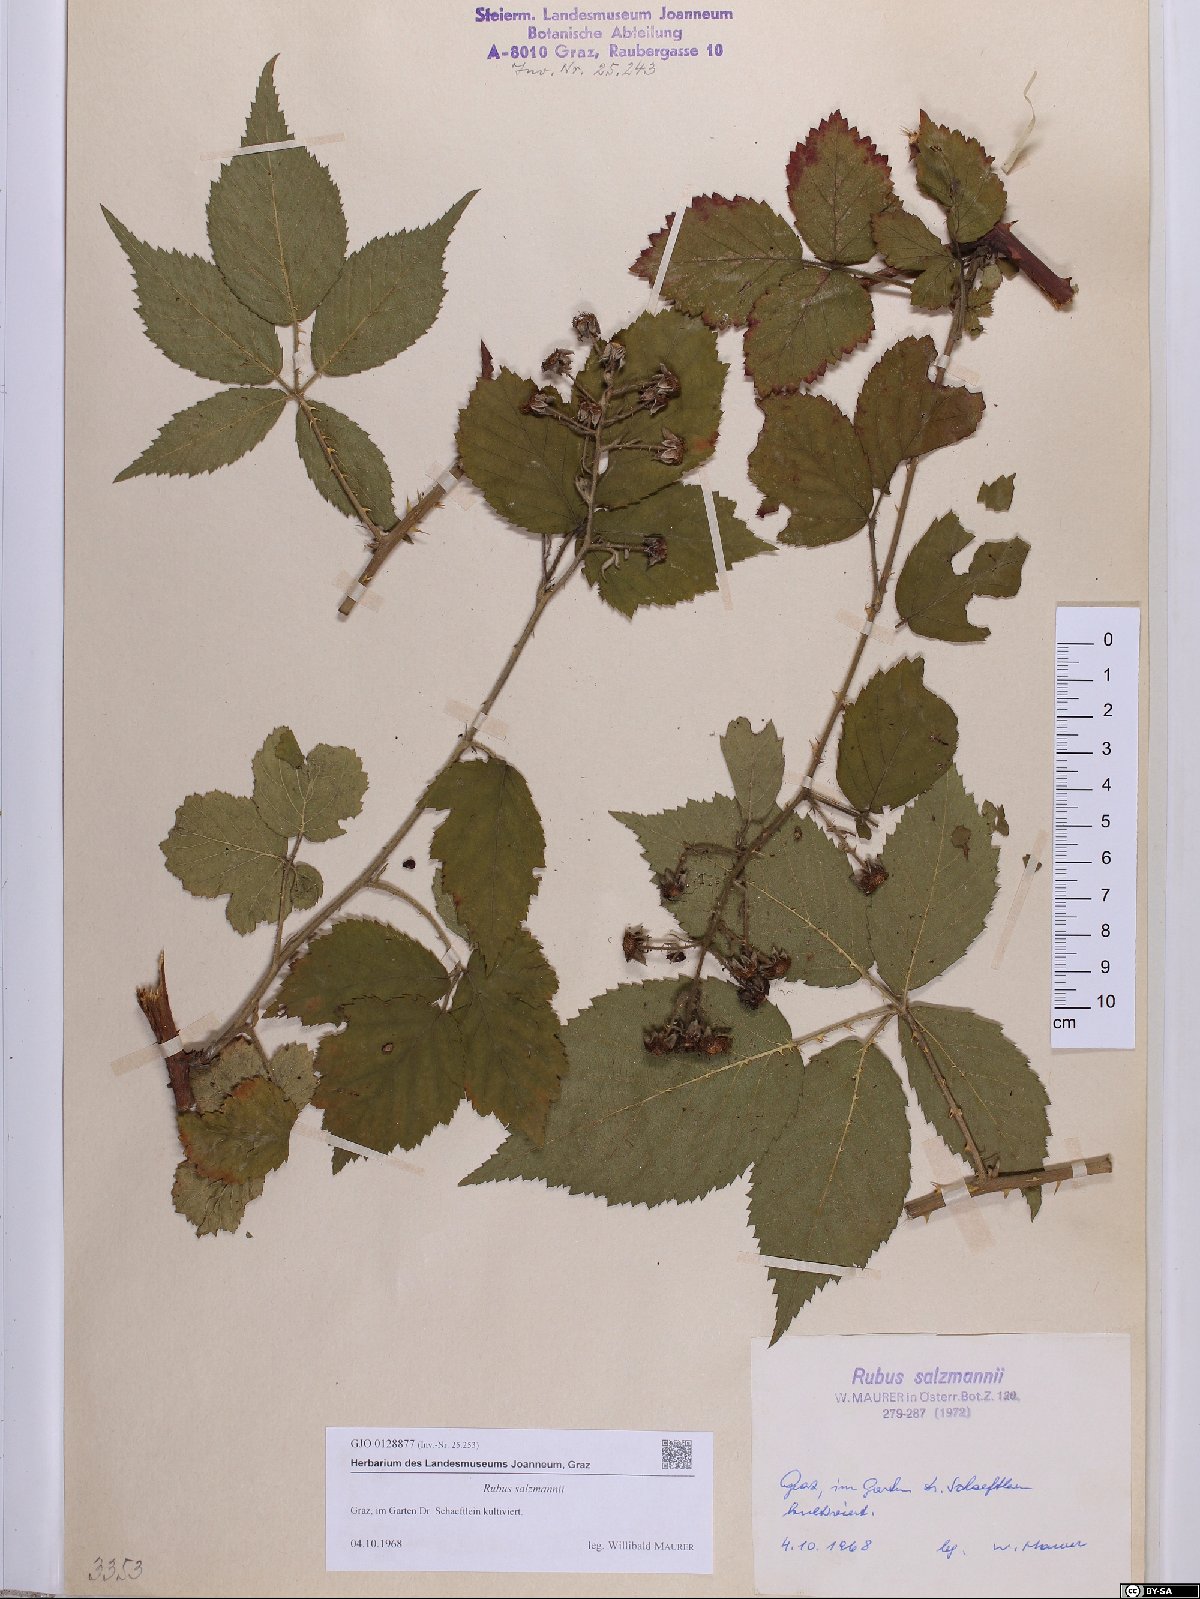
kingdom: Plantae
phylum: Tracheophyta
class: Magnoliopsida
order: Rosales
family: Rosaceae
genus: Rubus
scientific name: Rubus salzmannii
